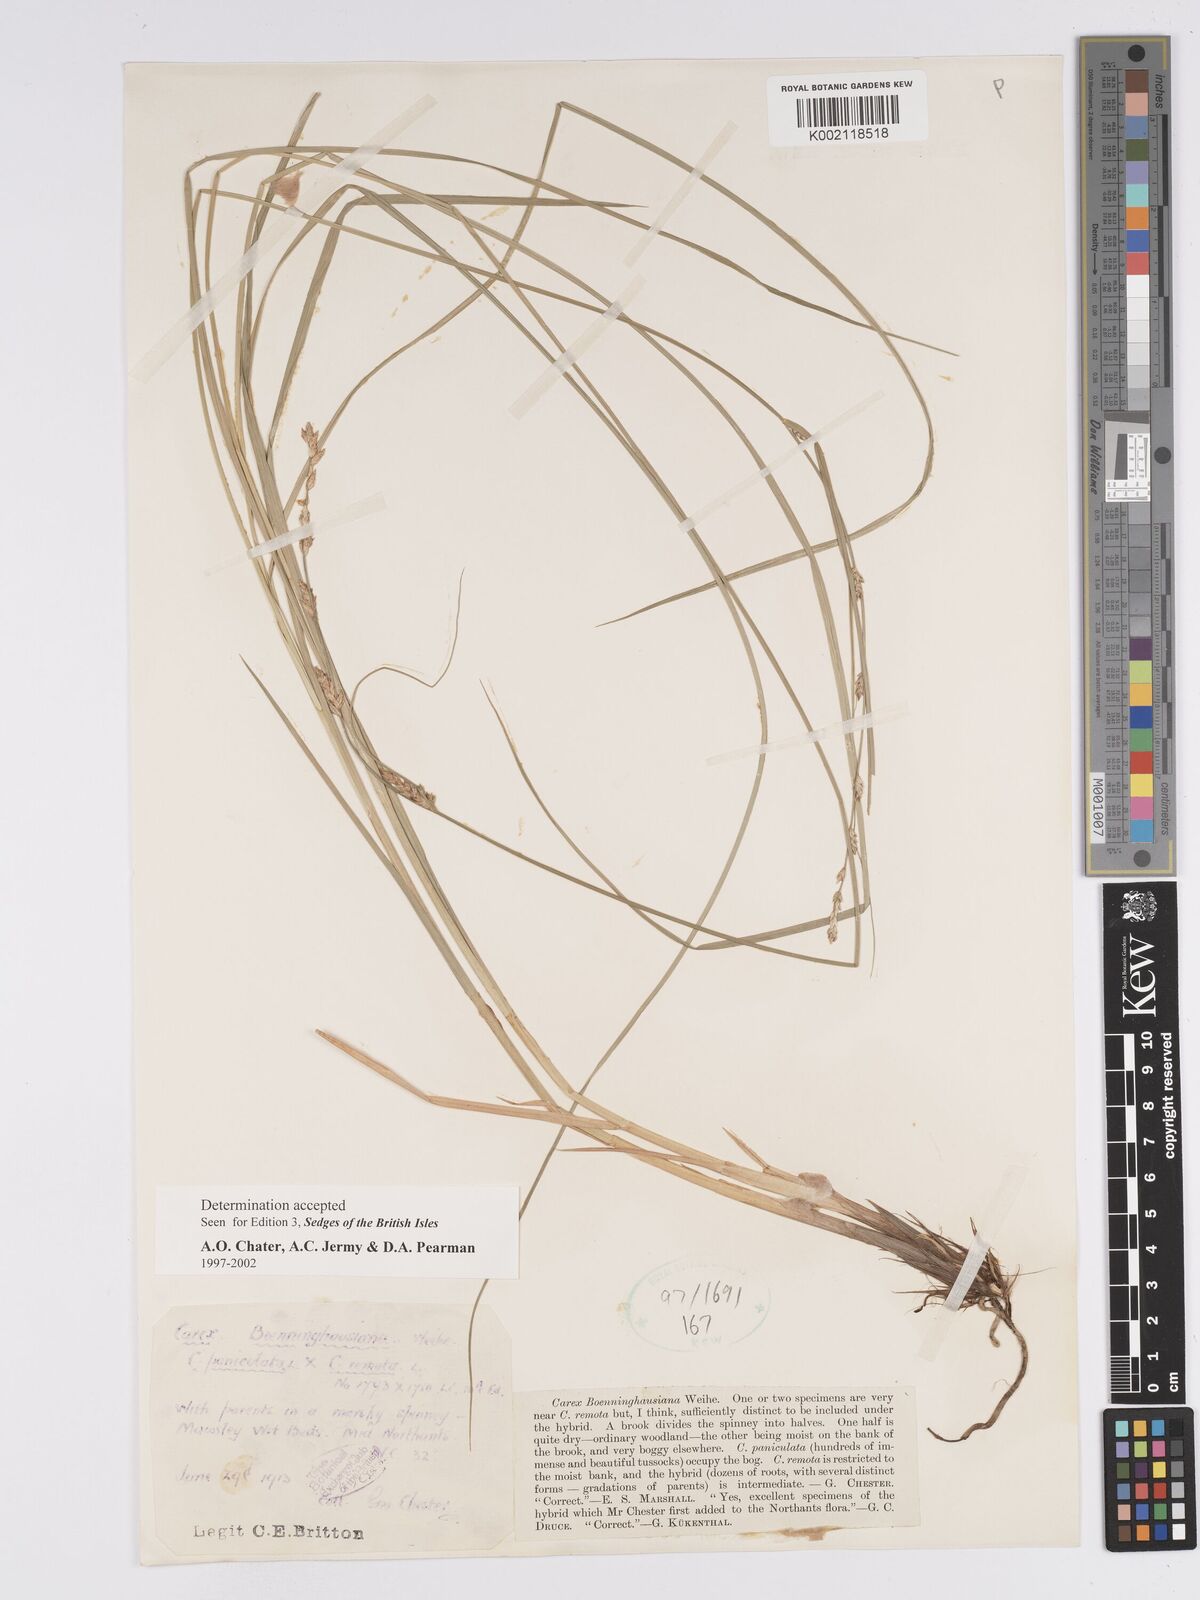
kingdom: Plantae
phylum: Tracheophyta
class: Liliopsida
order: Poales
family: Cyperaceae
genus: Carex
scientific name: Carex boenninghausiana
